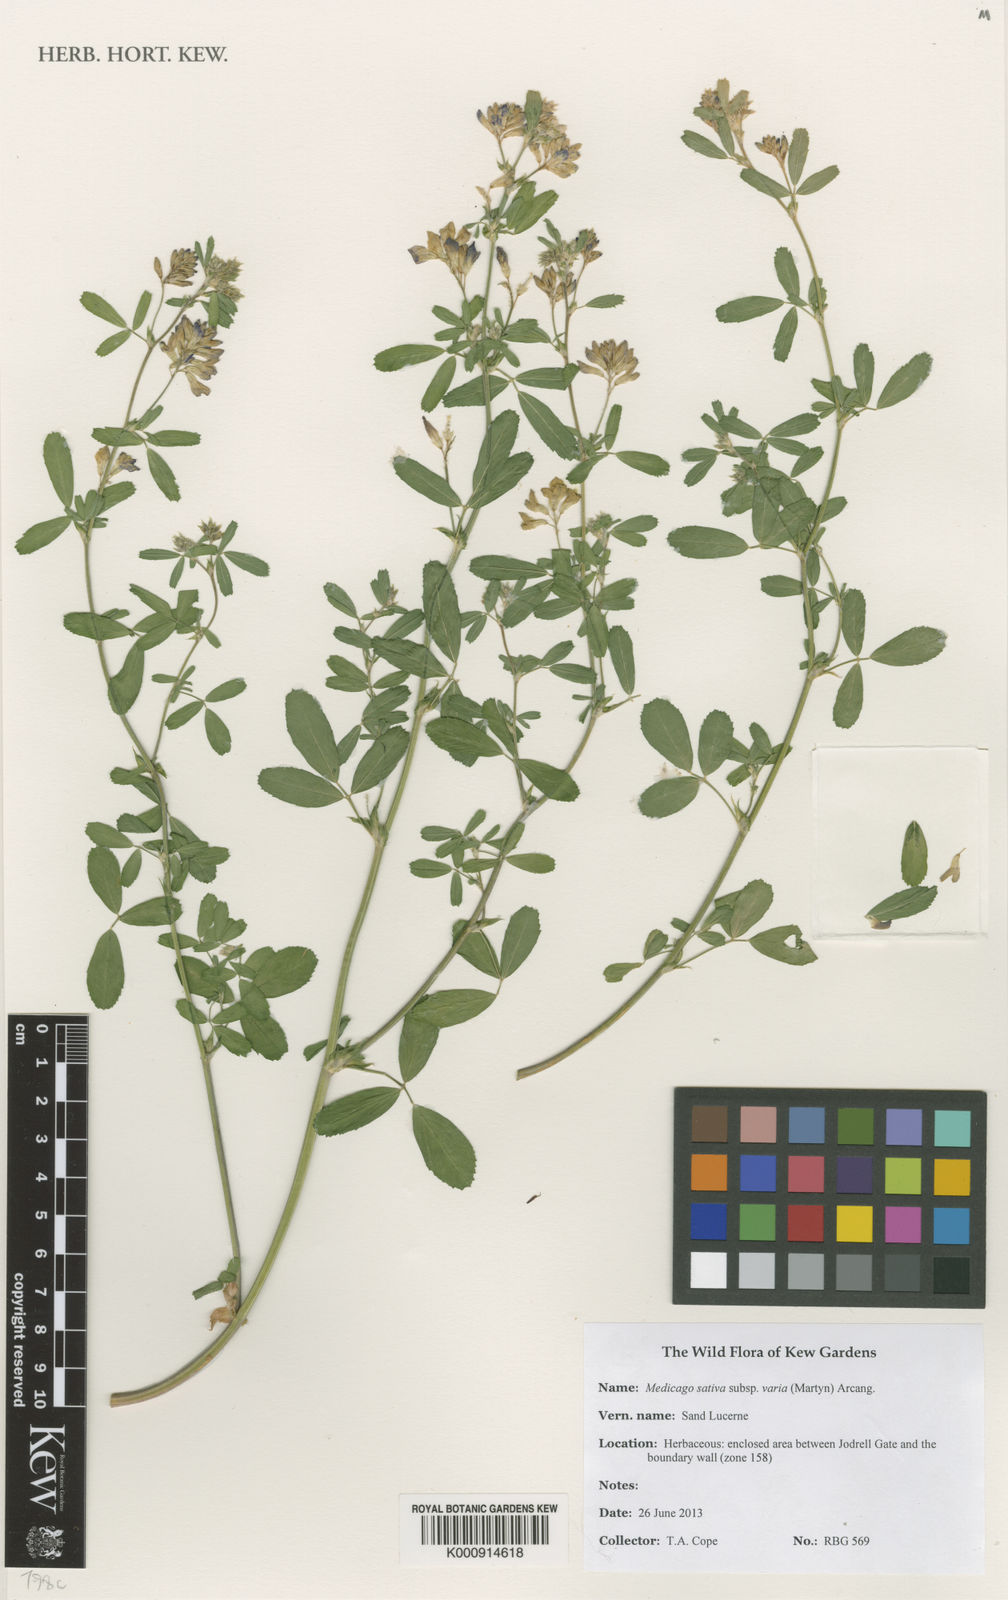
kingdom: Plantae
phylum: Tracheophyta
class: Magnoliopsida
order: Fabales
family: Fabaceae
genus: Medicago
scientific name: Medicago varia
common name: Sand lucerne
